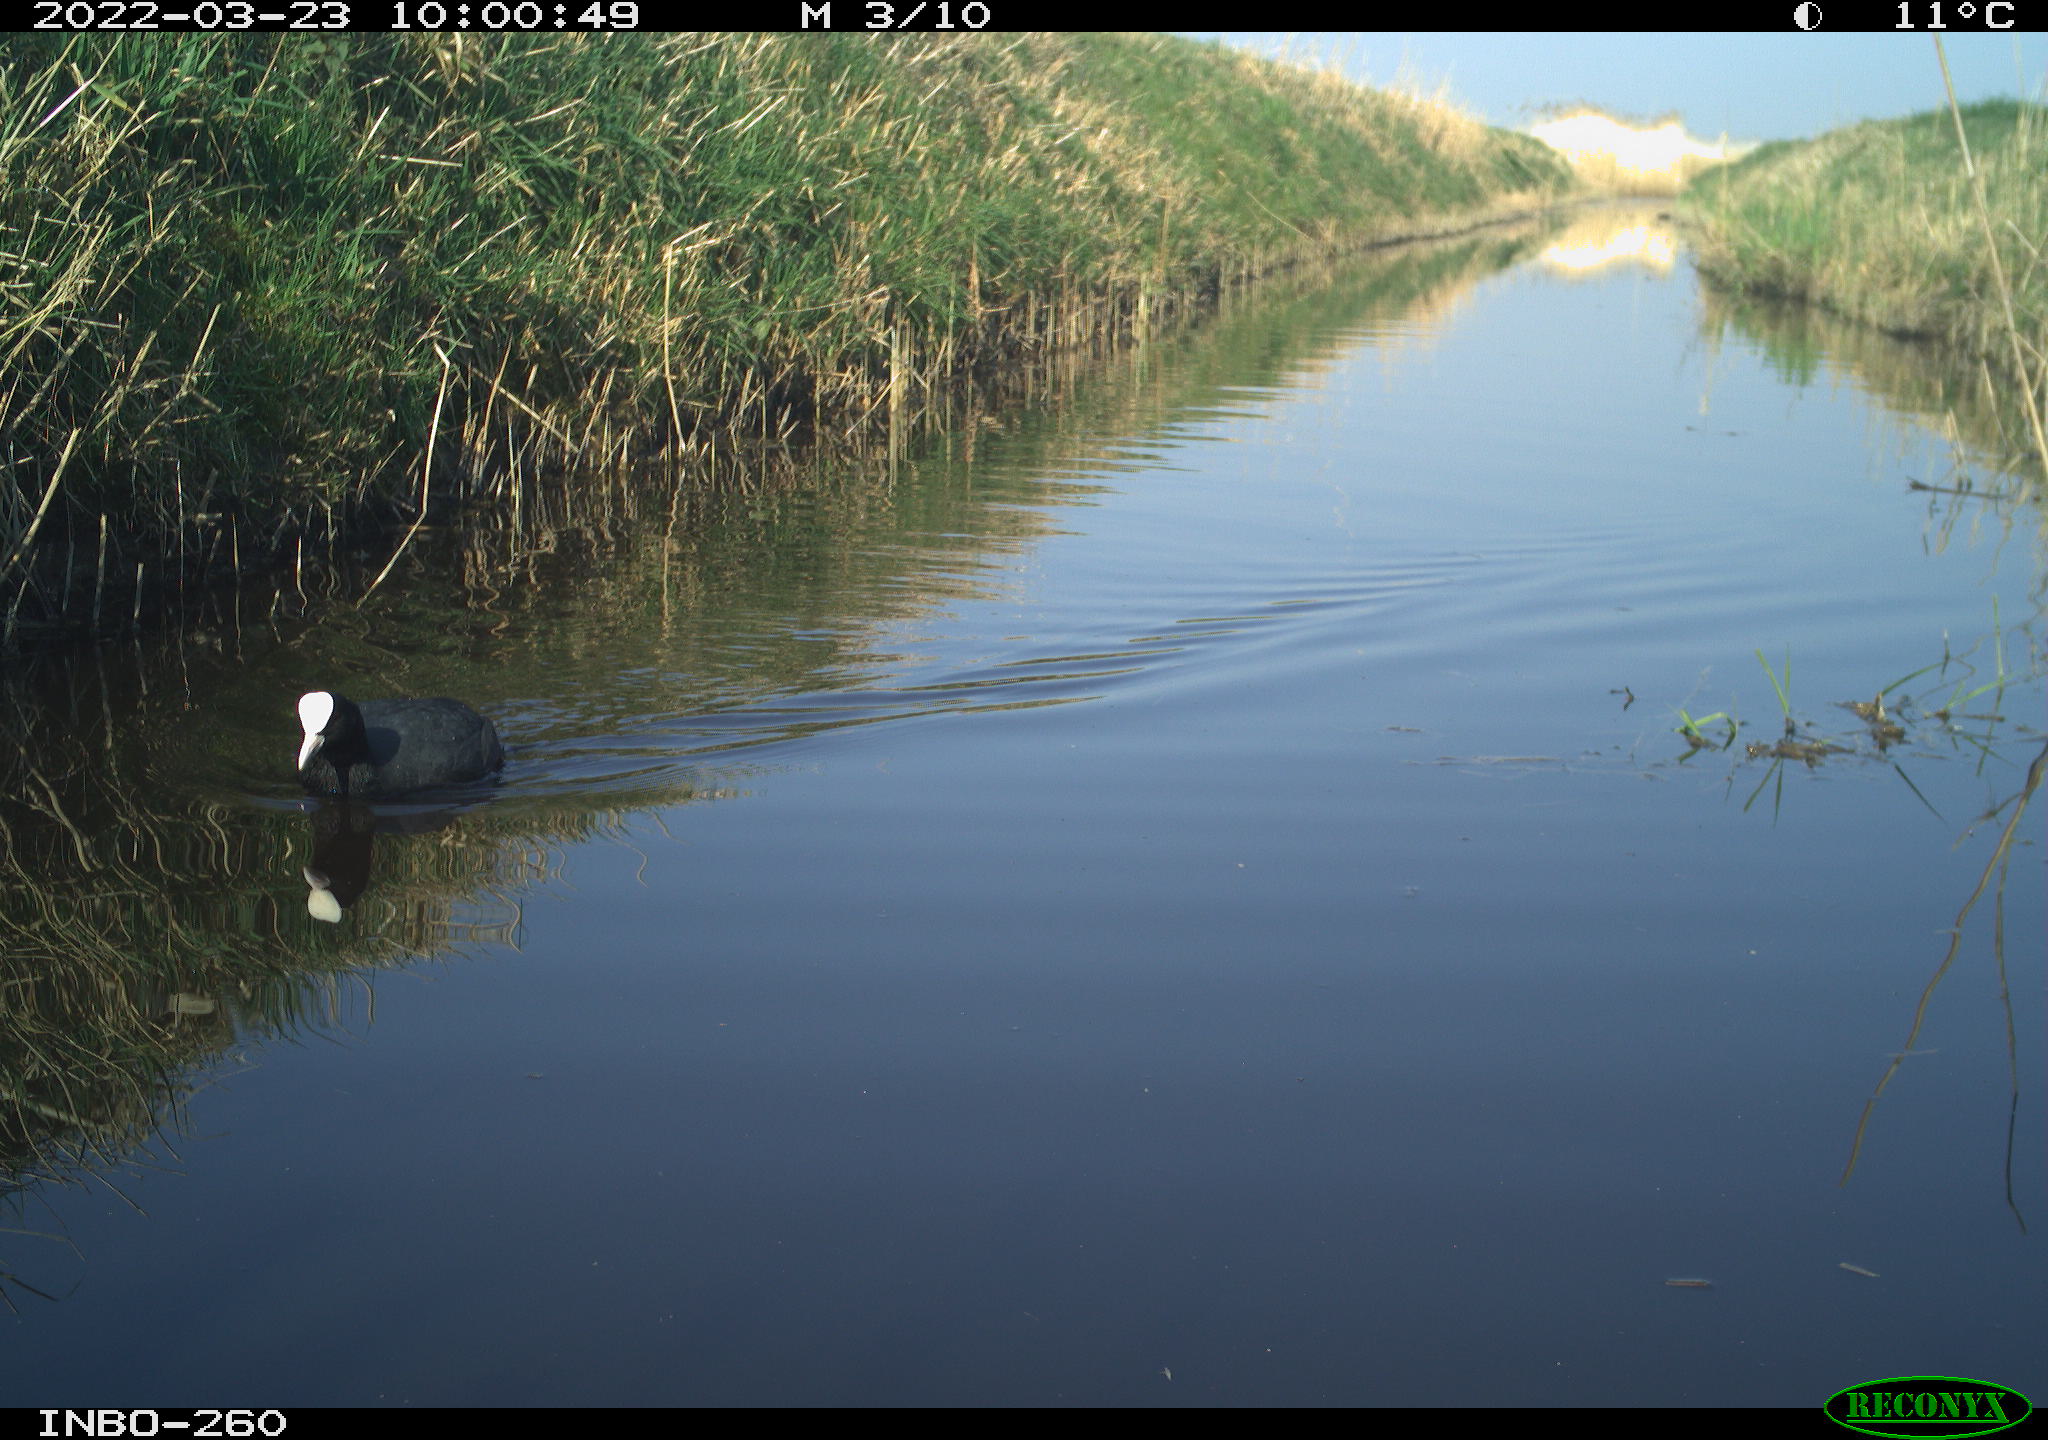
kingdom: Animalia
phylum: Chordata
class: Aves
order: Gruiformes
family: Rallidae
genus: Fulica
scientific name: Fulica atra
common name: Eurasian coot
